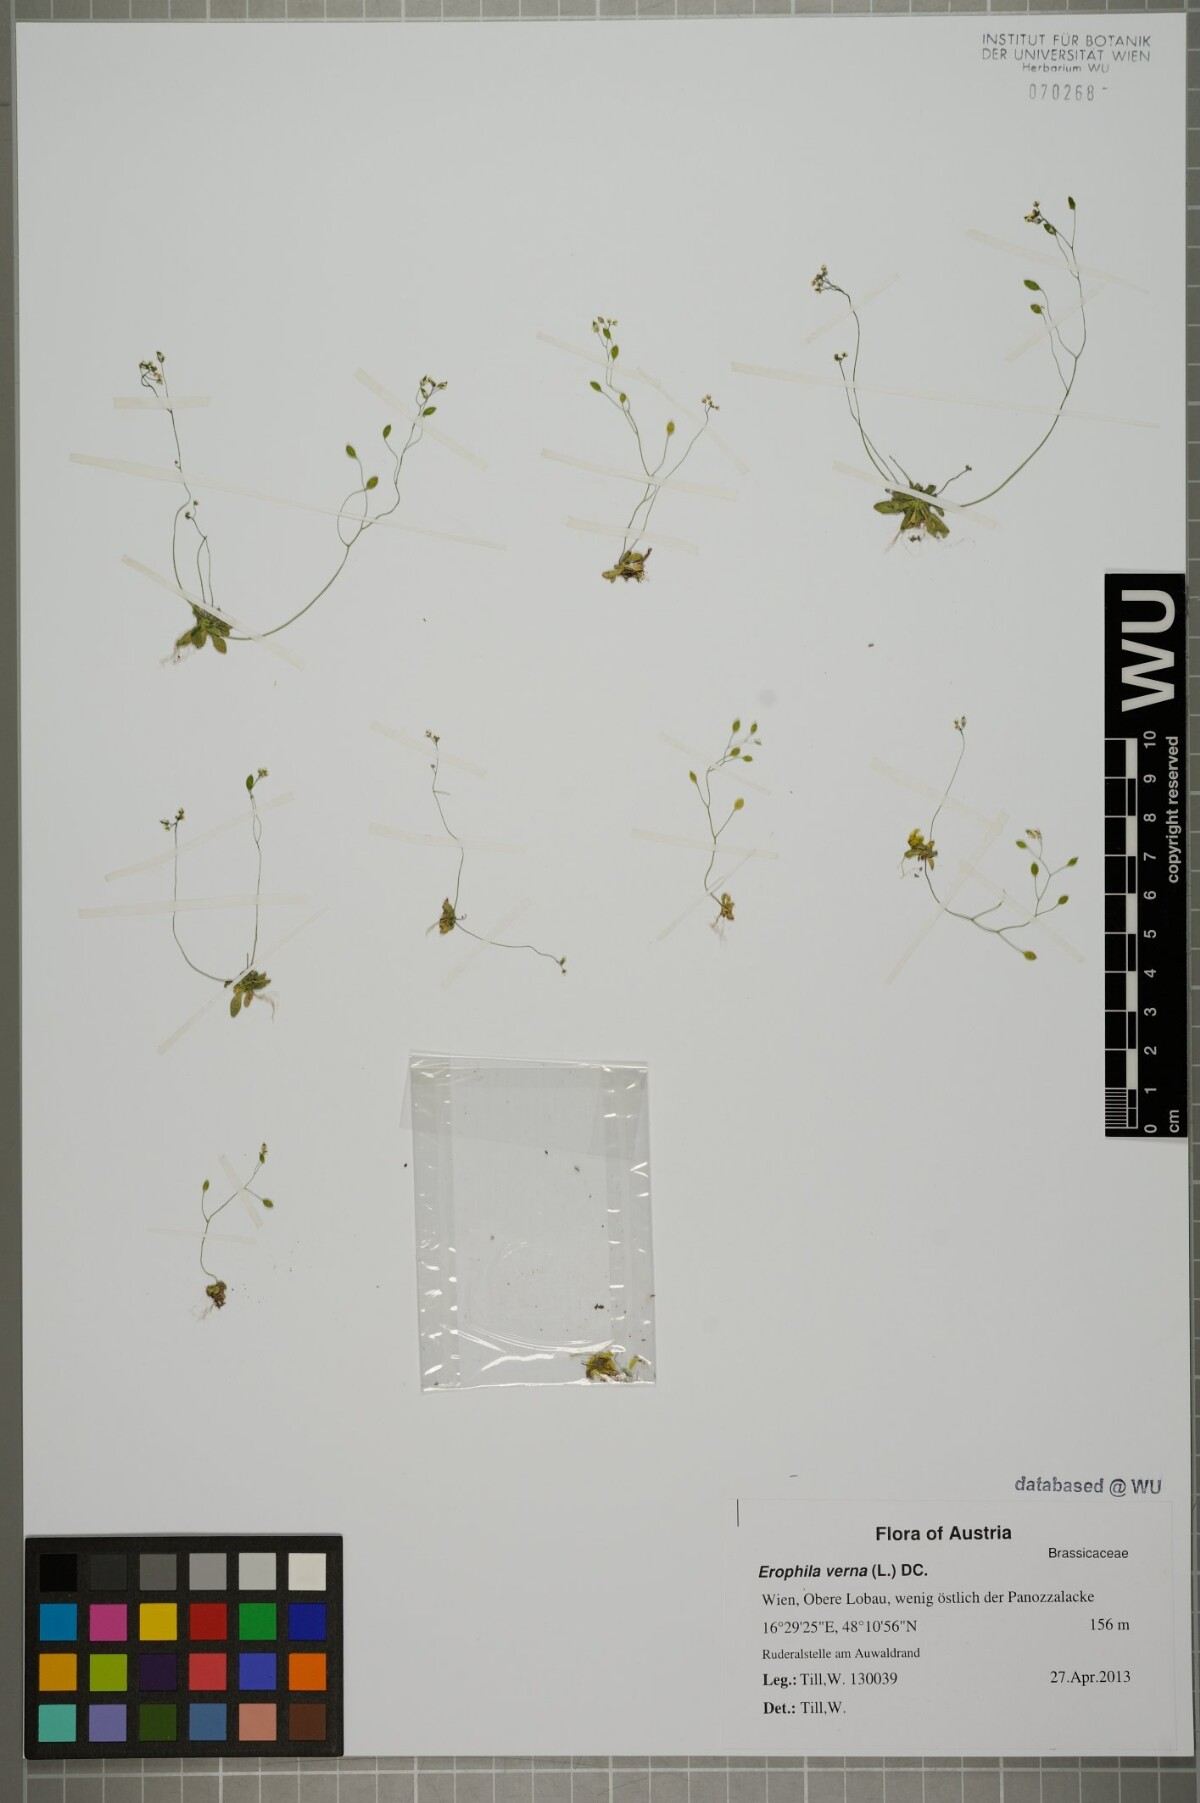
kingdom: Plantae
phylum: Tracheophyta
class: Magnoliopsida
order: Brassicales
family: Brassicaceae
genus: Draba
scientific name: Draba verna
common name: Spring draba
